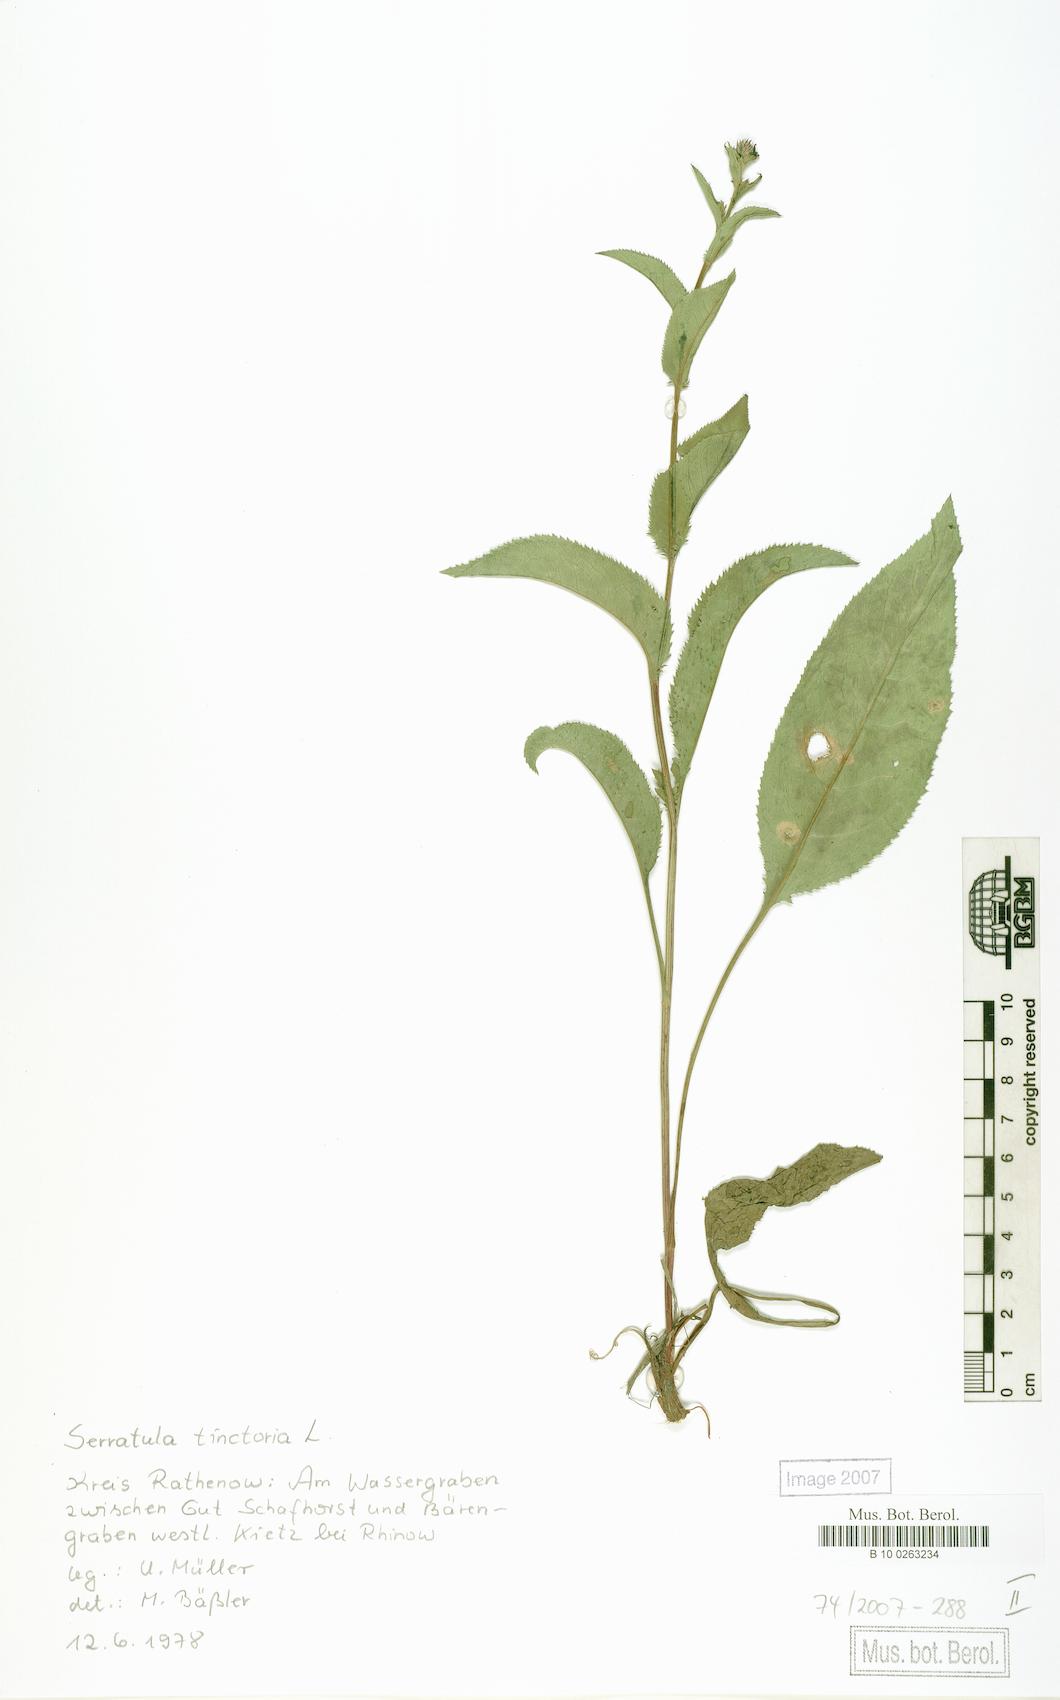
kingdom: Plantae
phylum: Tracheophyta
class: Magnoliopsida
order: Asterales
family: Asteraceae
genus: Serratula
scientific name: Serratula tinctoria
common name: Saw-wort
